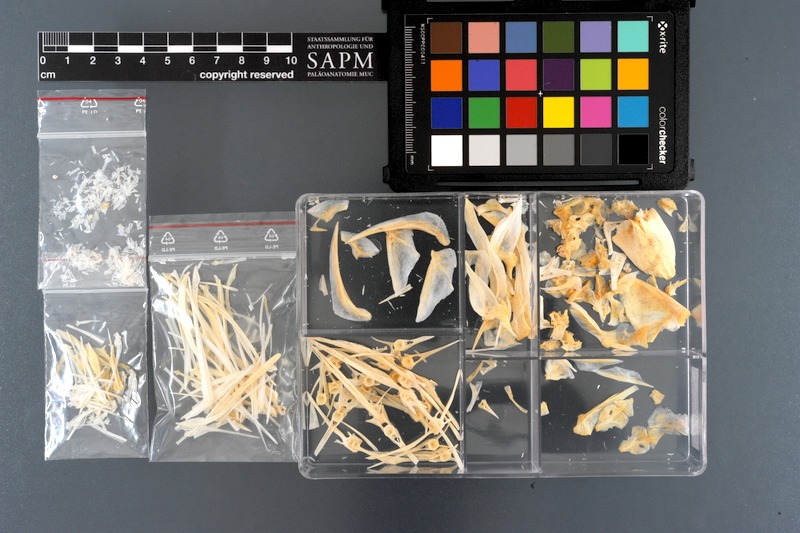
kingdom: Animalia
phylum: Chordata
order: Perciformes
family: Ephippidae
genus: Platax
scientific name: Platax teira
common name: Longfin baitfish
